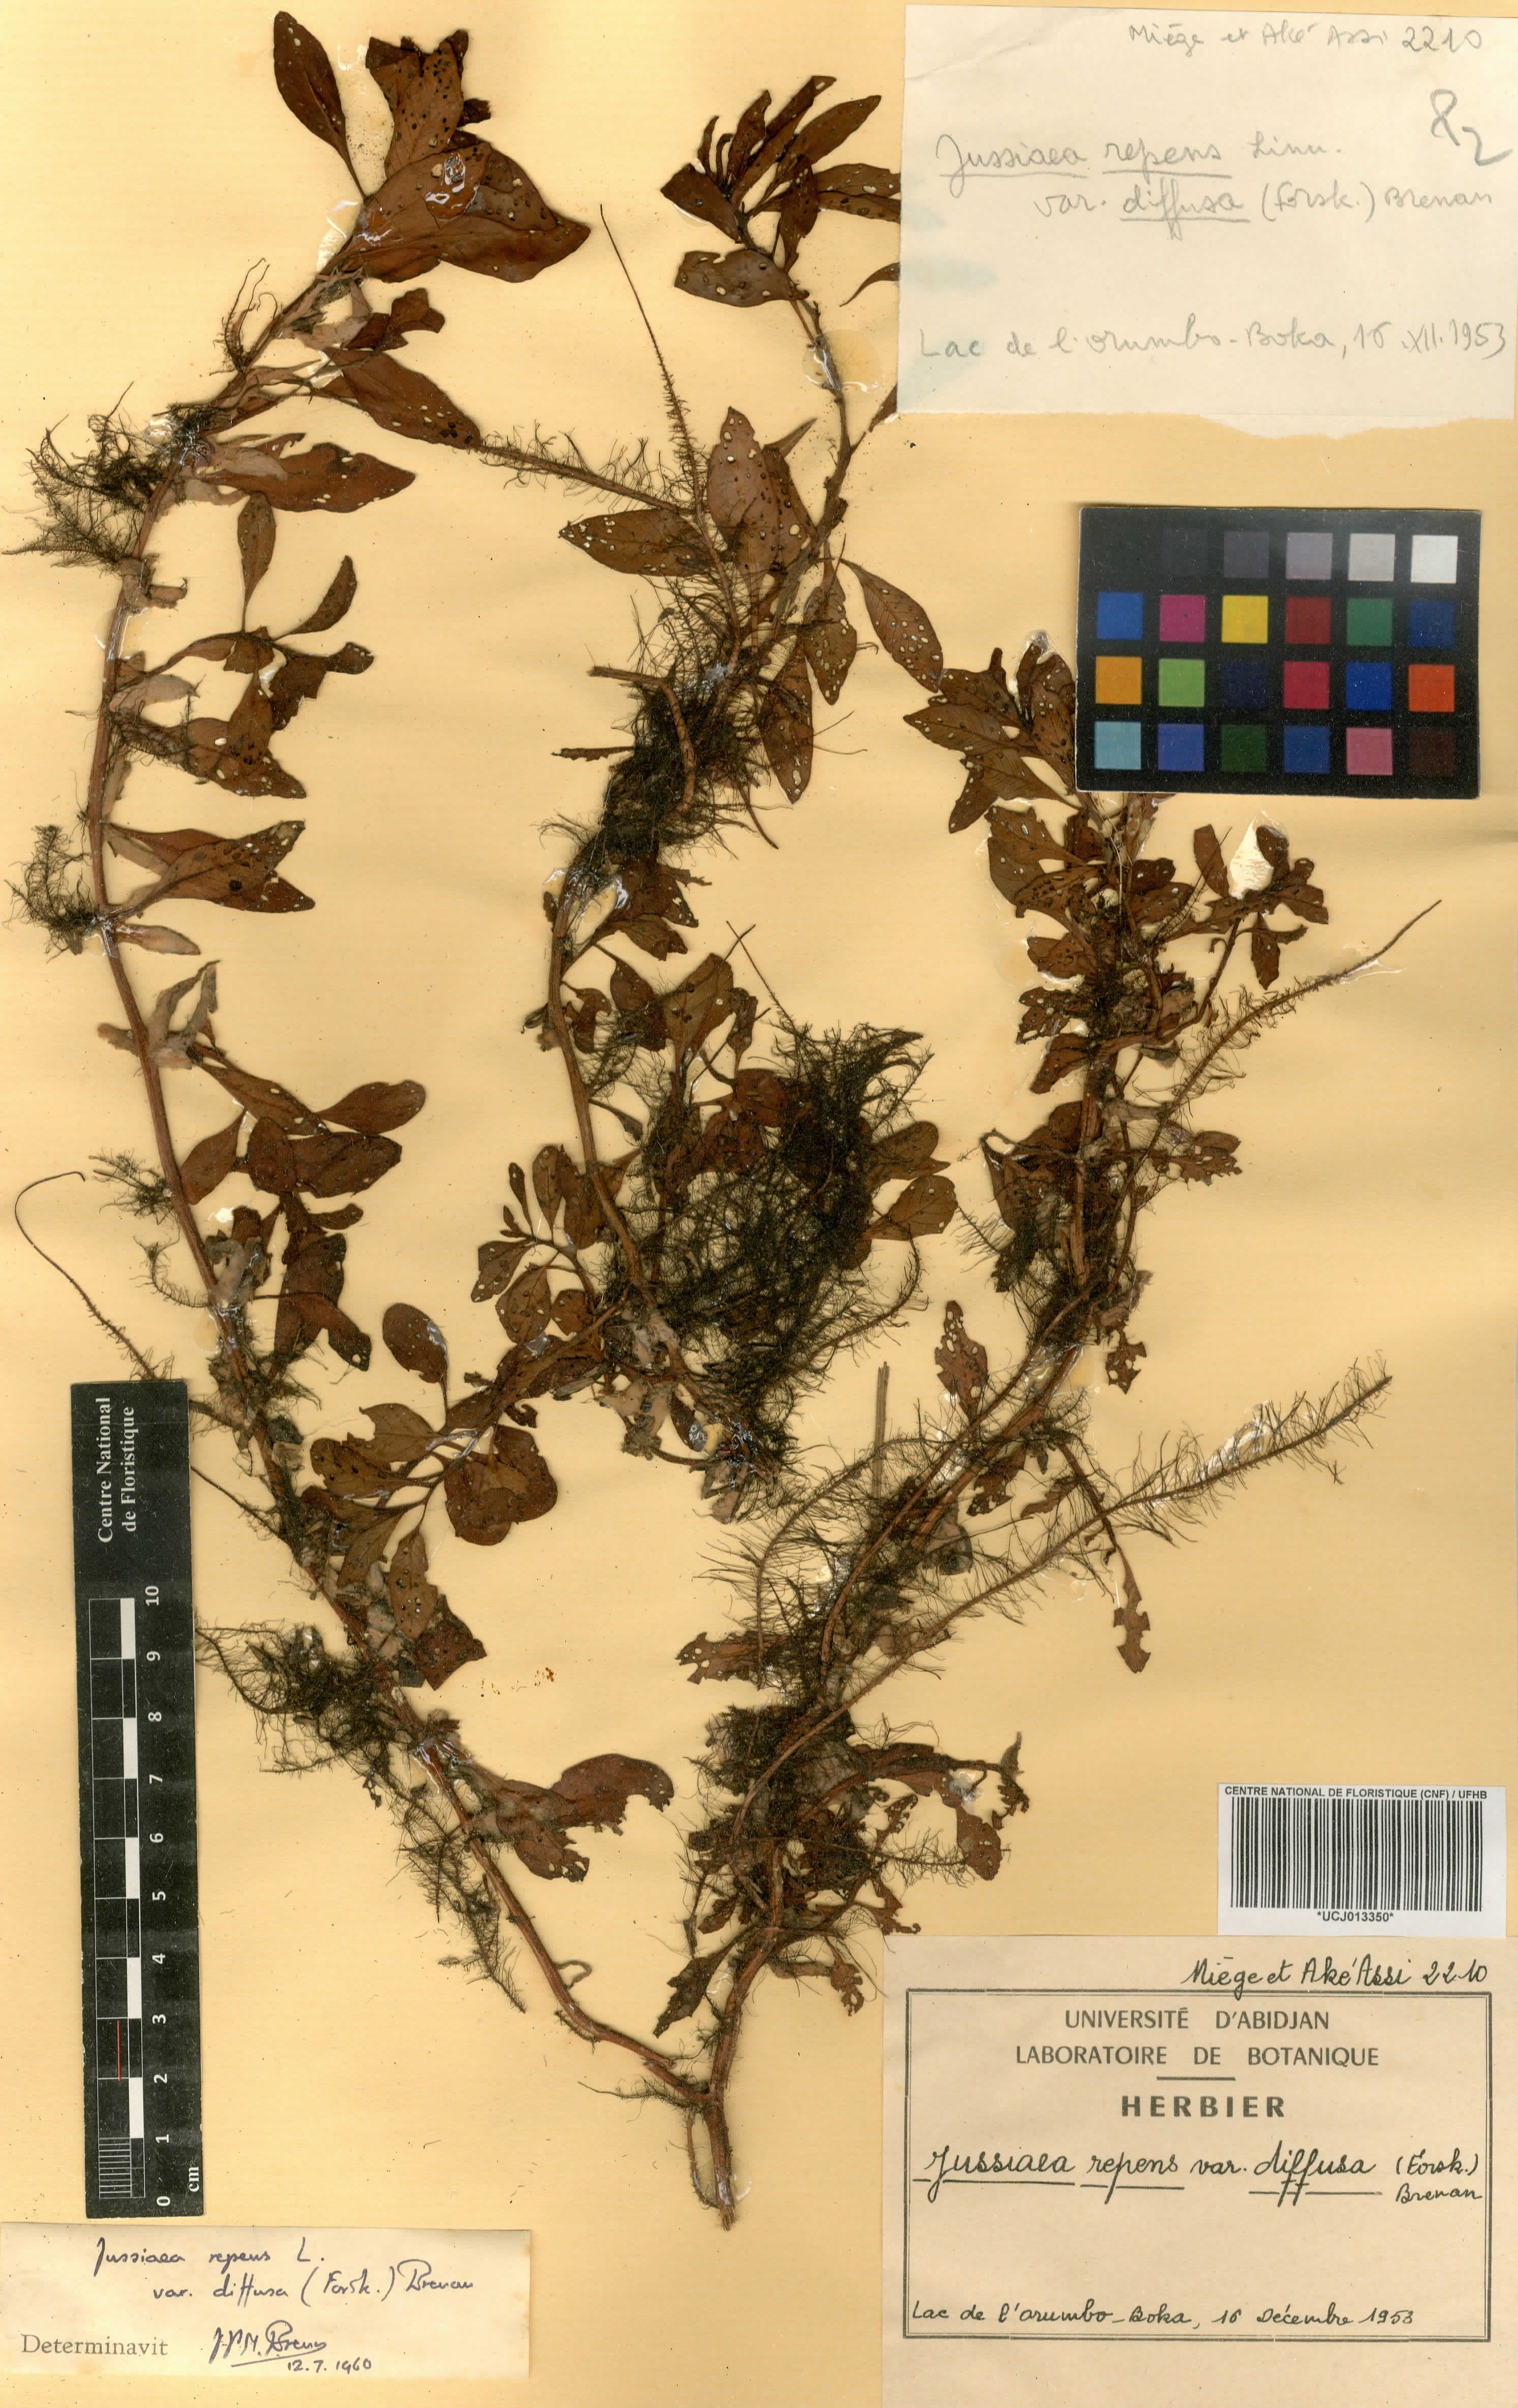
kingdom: Plantae
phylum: Tracheophyta
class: Magnoliopsida
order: Myrtales
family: Onagraceae
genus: Ludwigia
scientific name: Ludwigia adscendens
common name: Creeping water primrose
